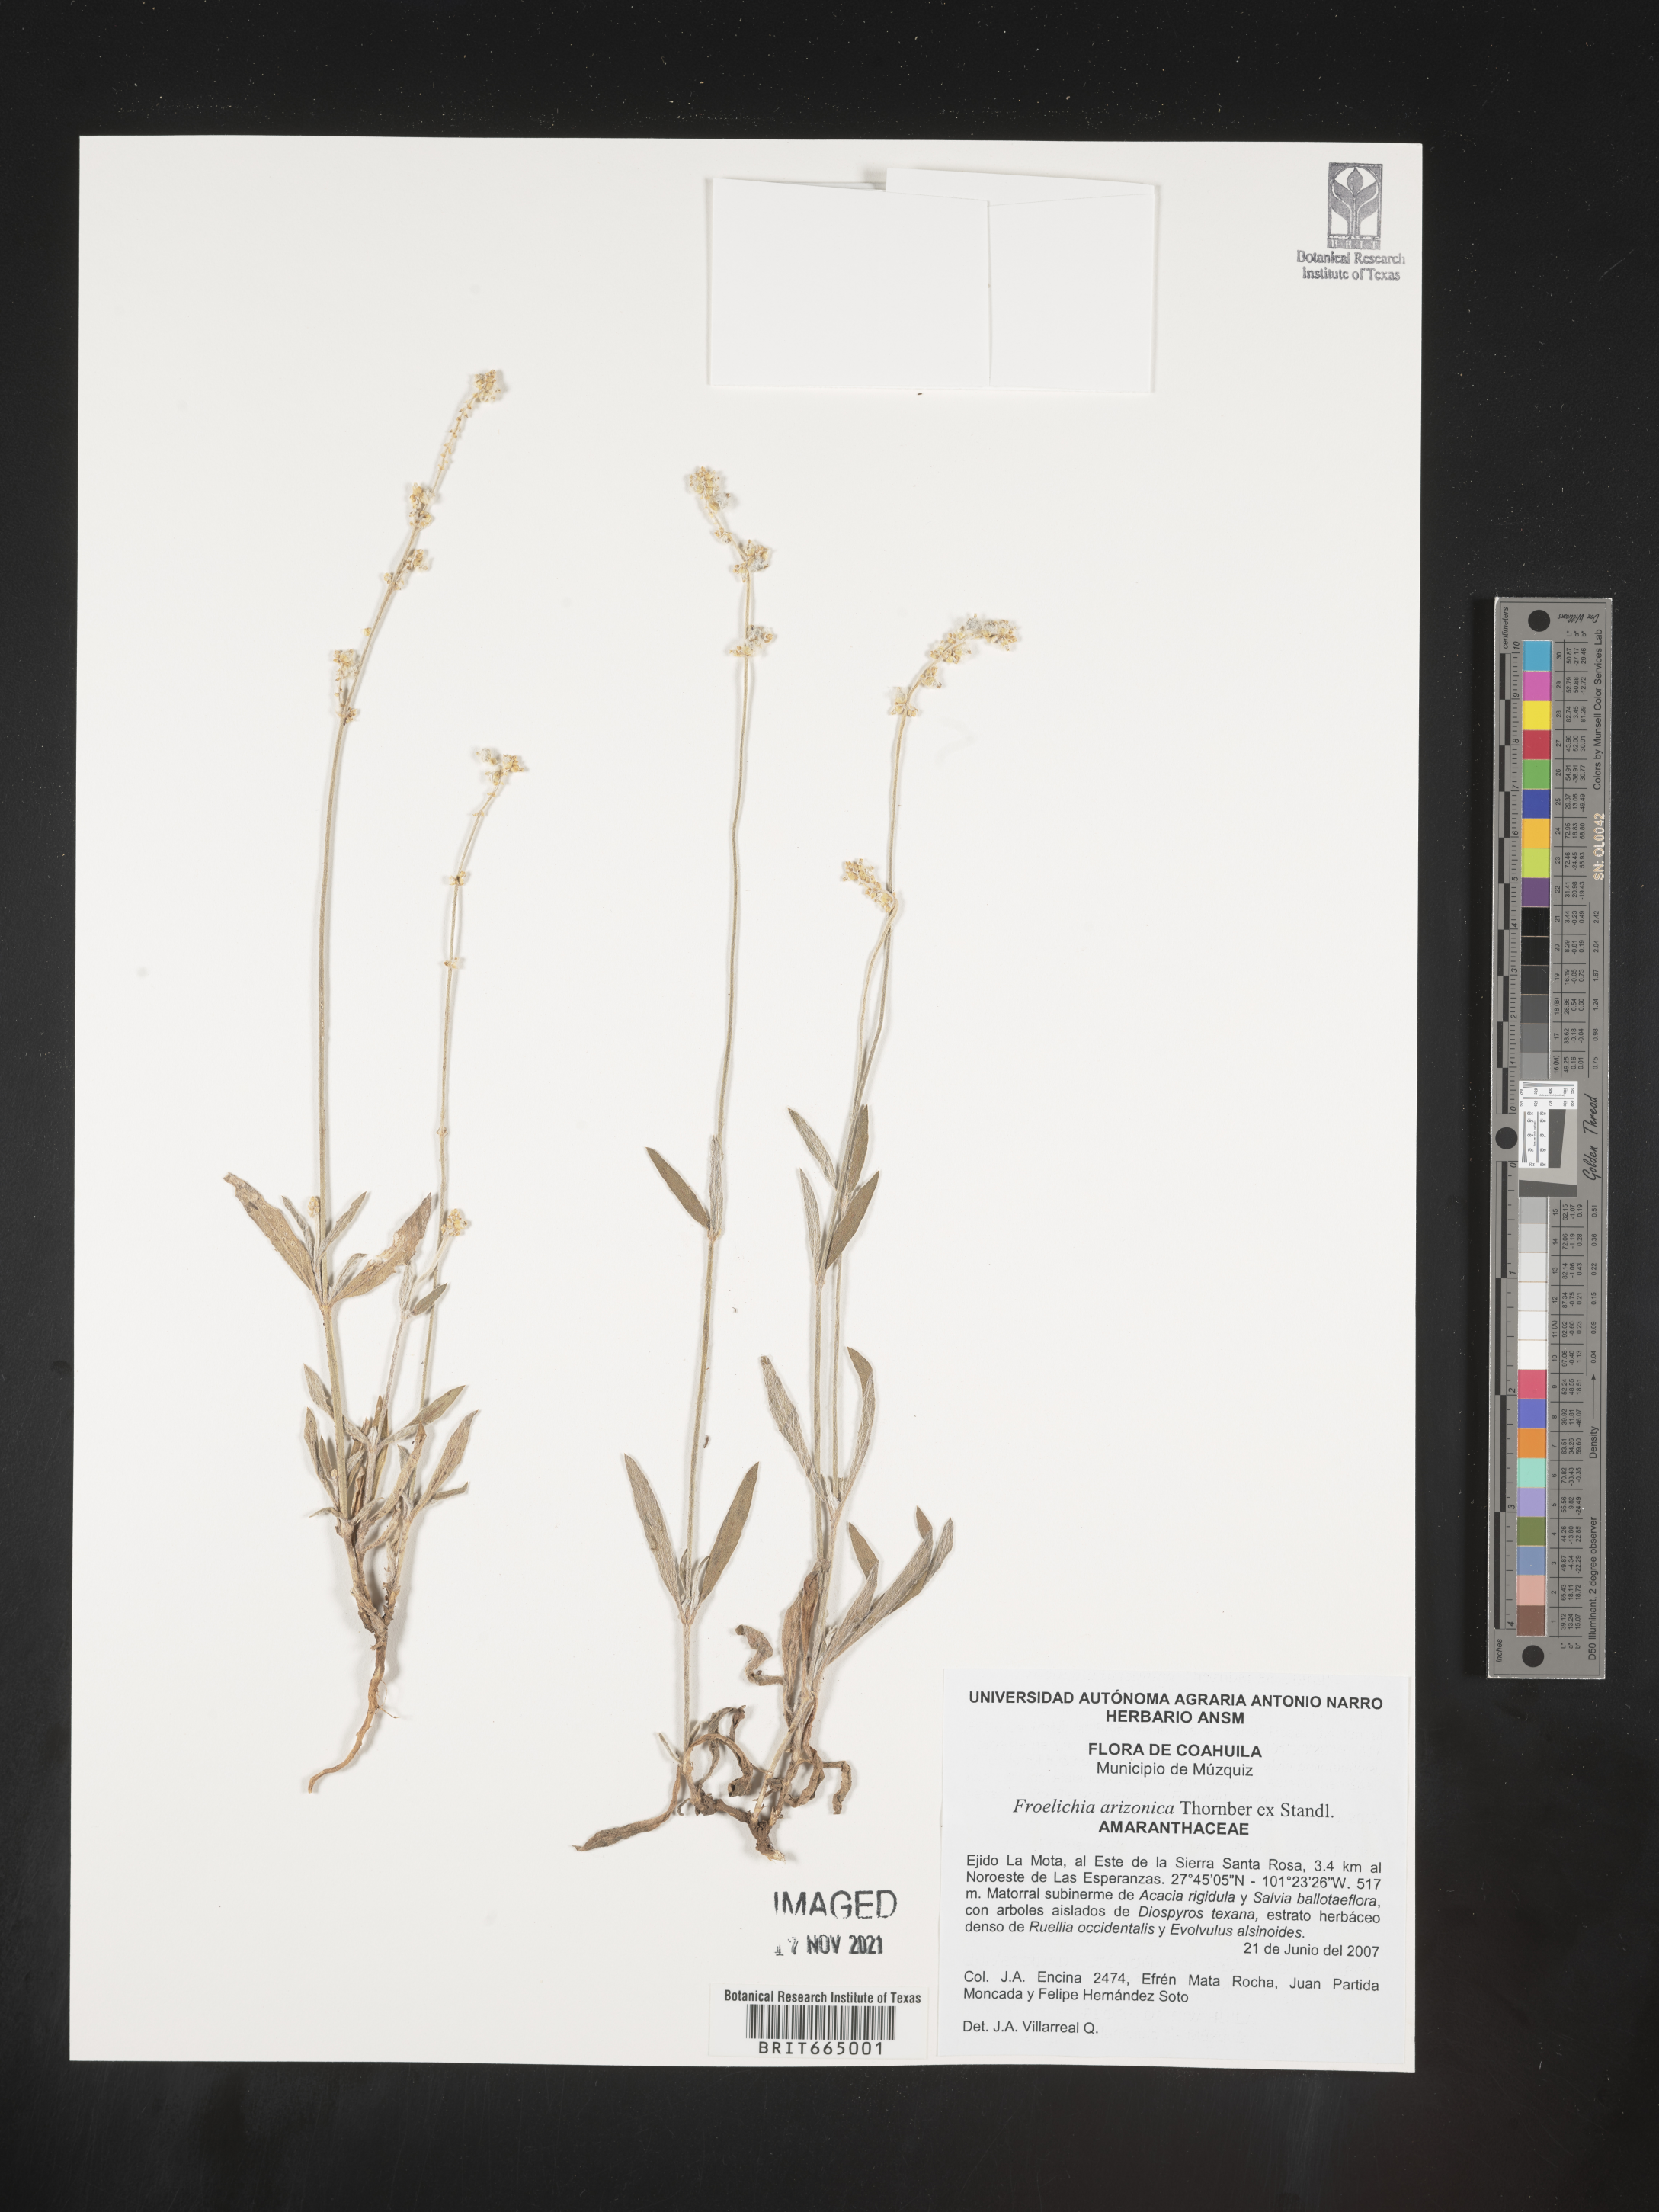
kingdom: Plantae
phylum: Tracheophyta
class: Magnoliopsida
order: Caryophyllales
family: Amaranthaceae
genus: Froelichia
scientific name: Froelichia
